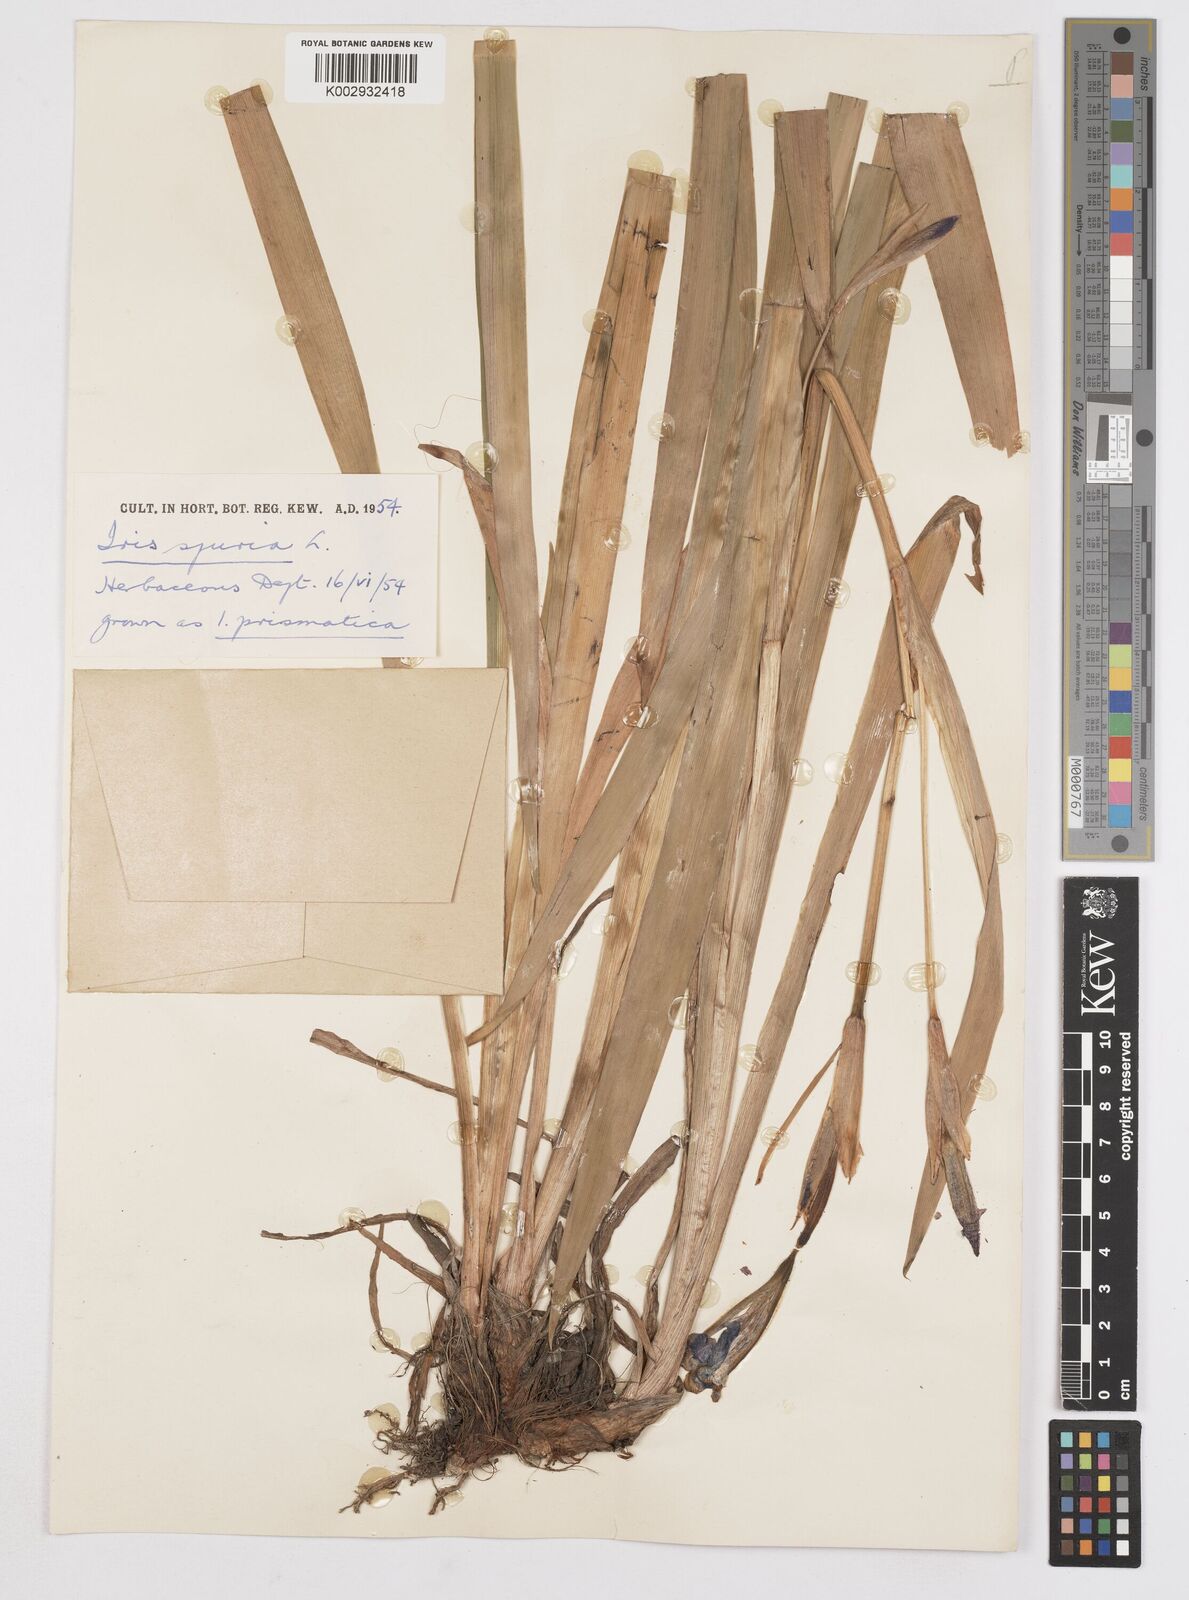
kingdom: Plantae
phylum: Tracheophyta
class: Liliopsida
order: Asparagales
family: Iridaceae
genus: Iris
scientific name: Iris spuria
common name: Blue iris
